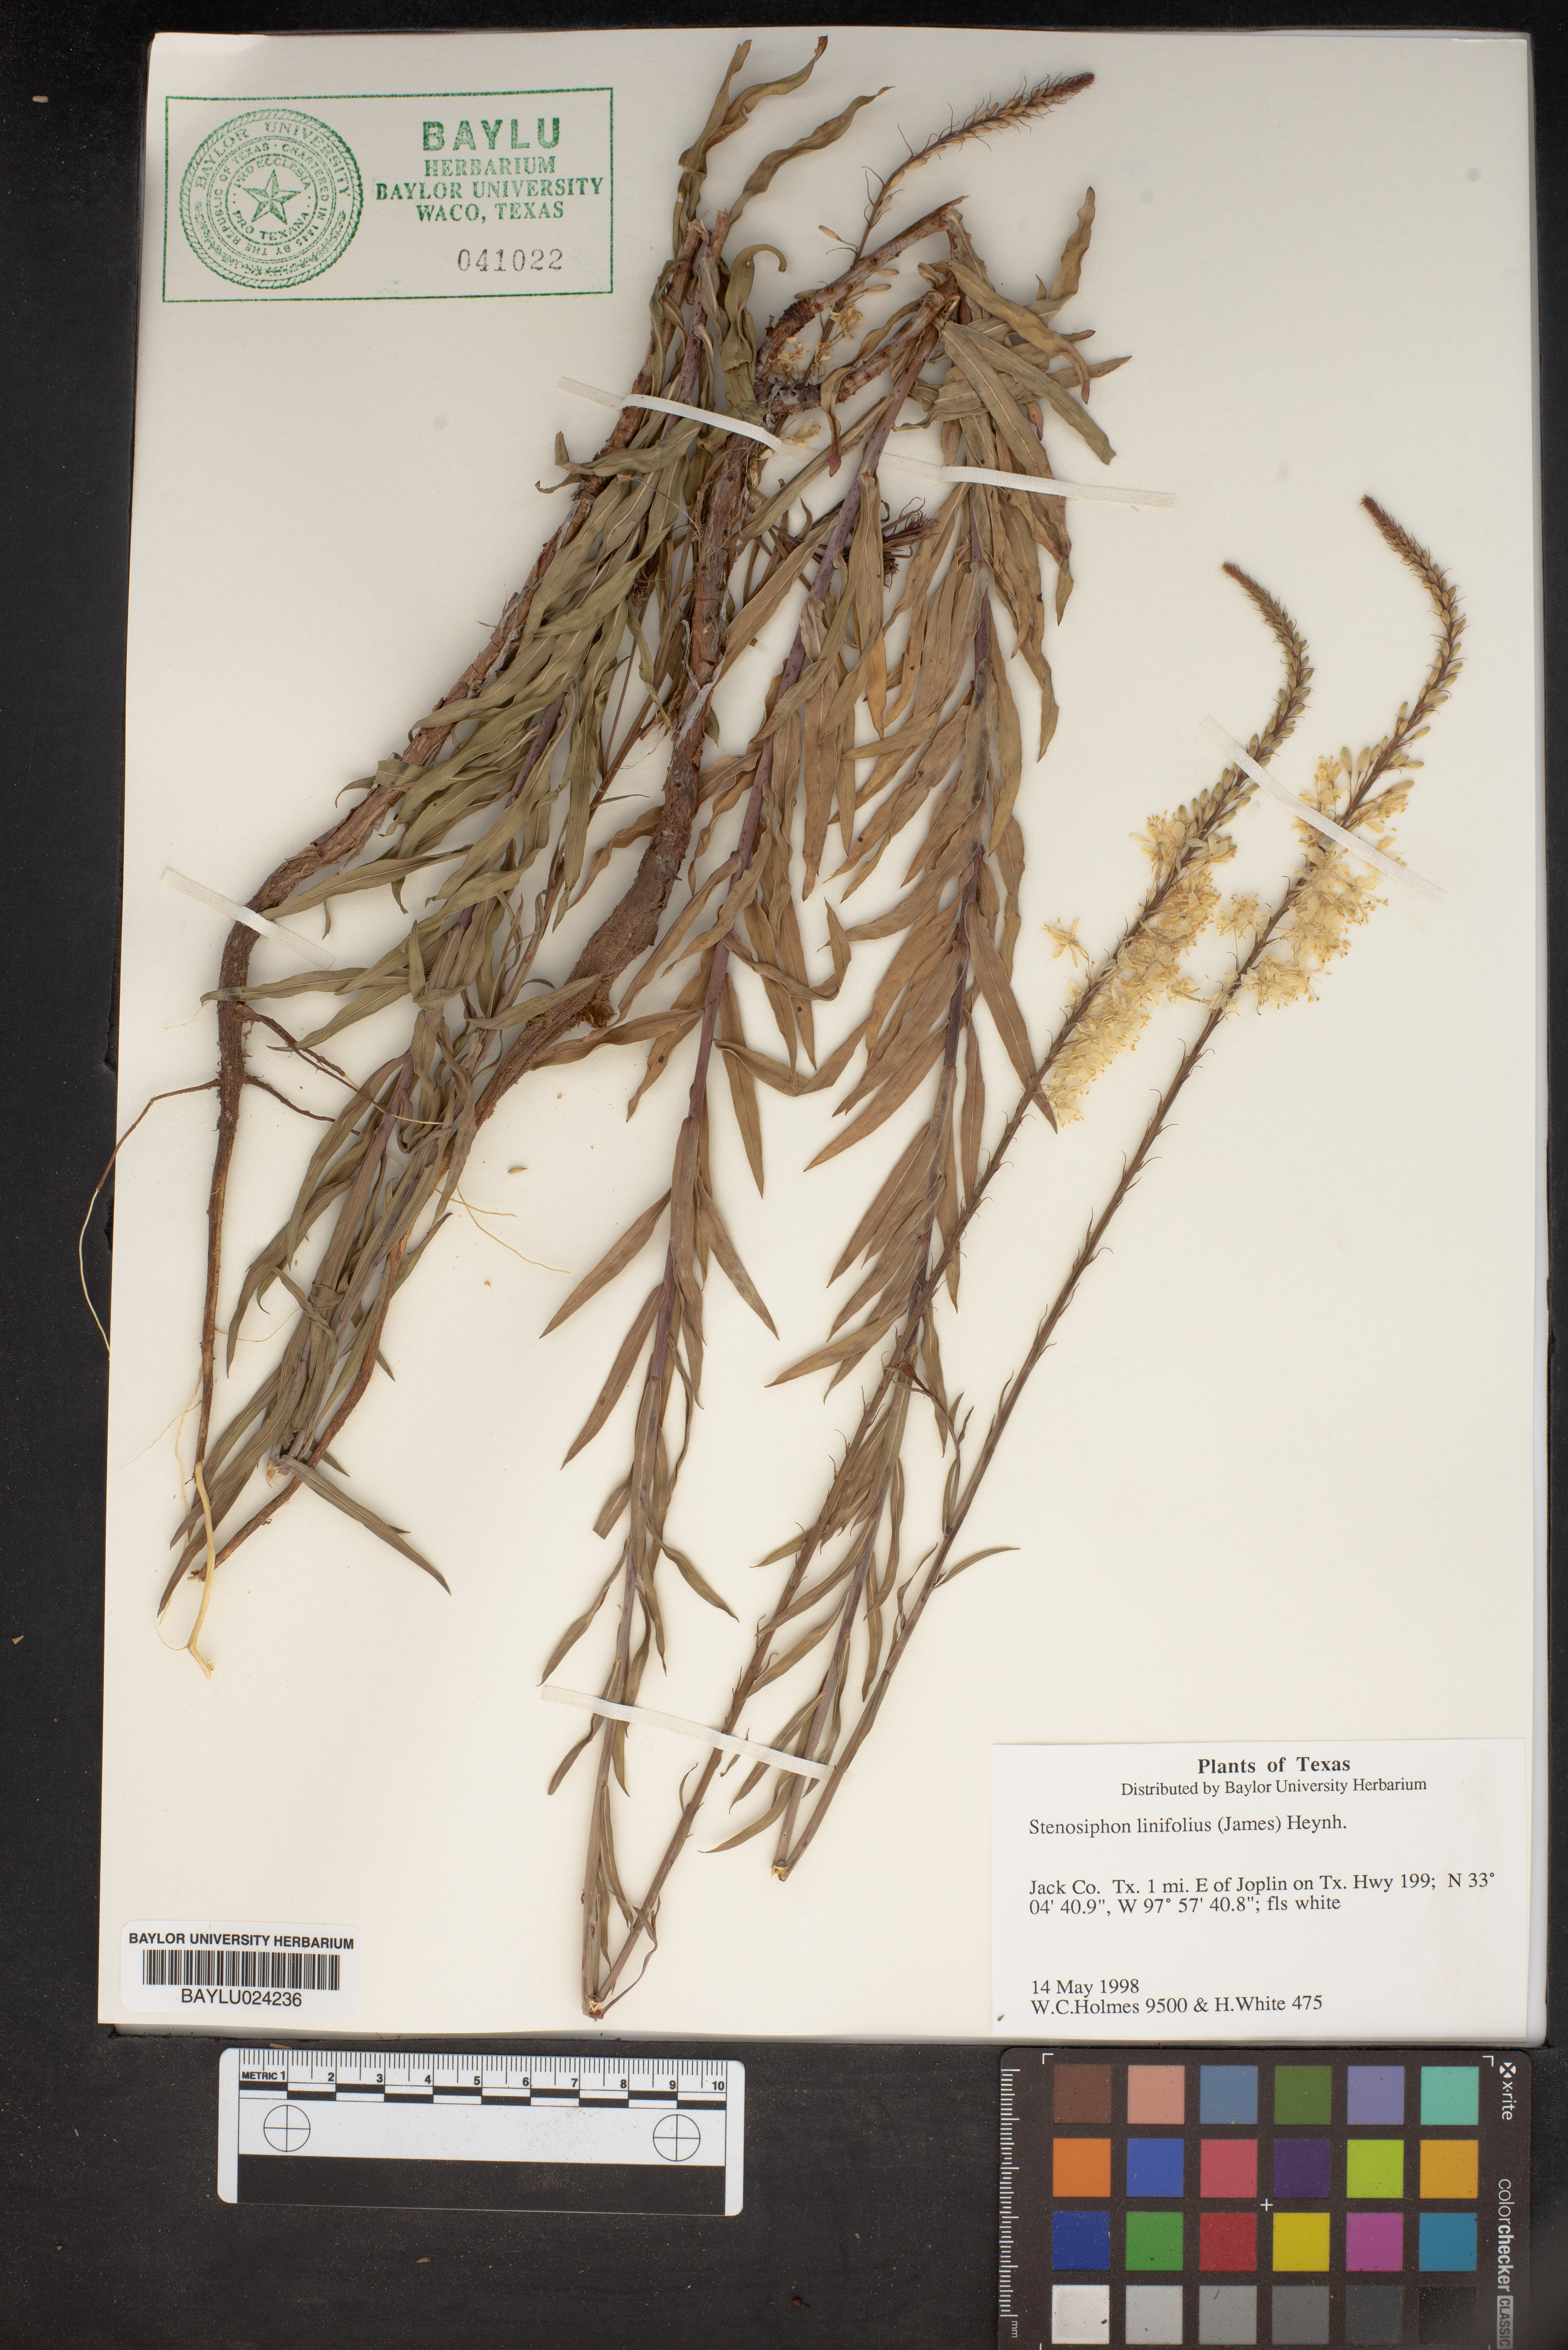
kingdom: Plantae
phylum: Tracheophyta
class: Magnoliopsida
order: Myrtales
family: Onagraceae
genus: Oenothera
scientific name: Oenothera glaucifolia
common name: False gaura
